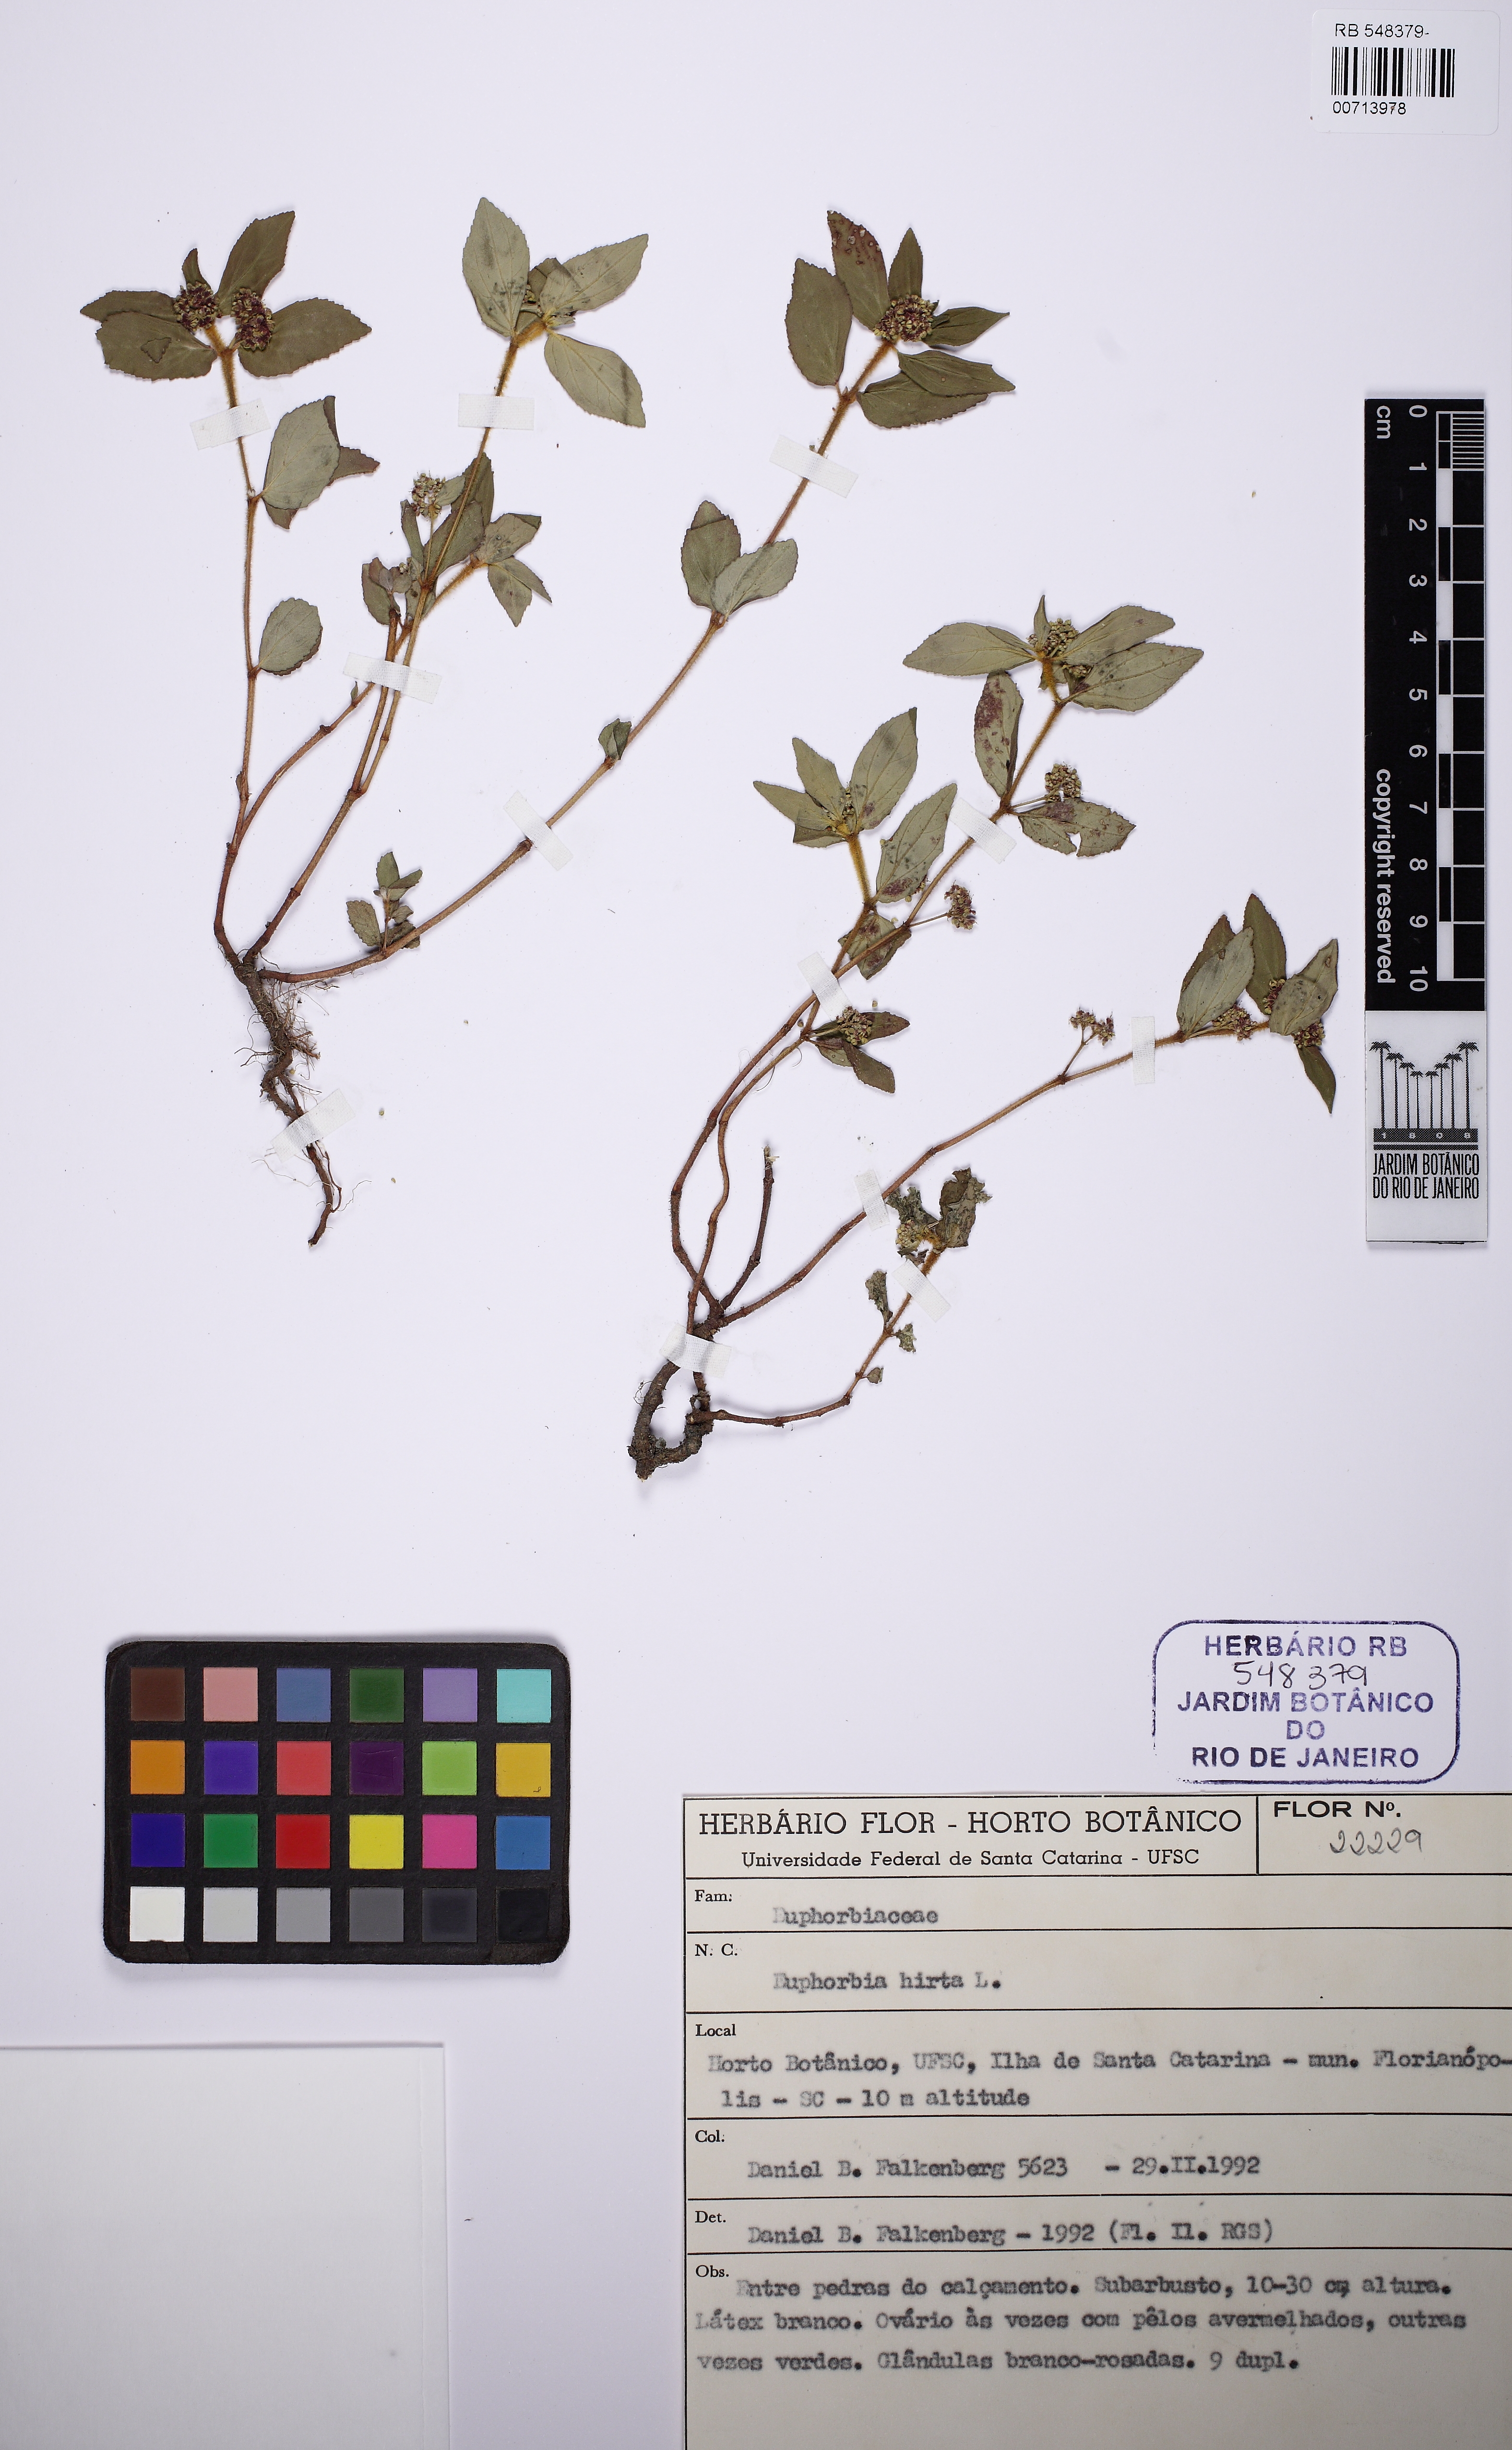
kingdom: Plantae
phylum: Tracheophyta
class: Magnoliopsida
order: Malpighiales
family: Euphorbiaceae
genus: Euphorbia
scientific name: Euphorbia hirta
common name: Pillpod sandmat
